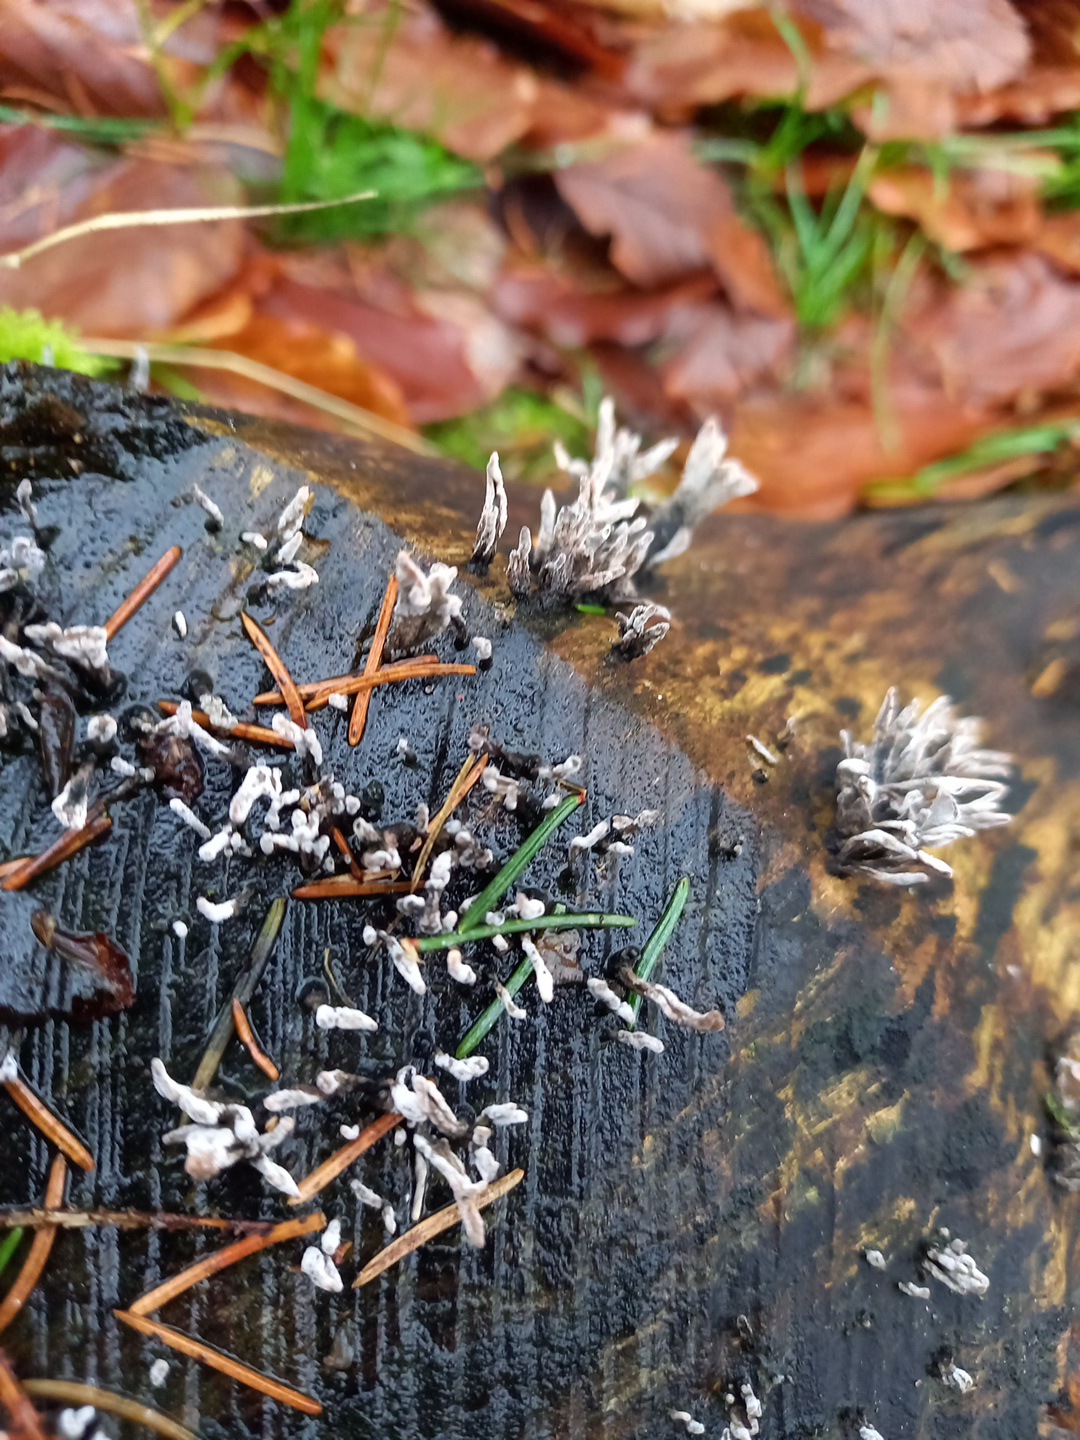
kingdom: Fungi
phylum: Ascomycota
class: Sordariomycetes
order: Xylariales
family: Xylariaceae
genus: Xylaria
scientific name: Xylaria hypoxylon
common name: grenet stødsvamp
